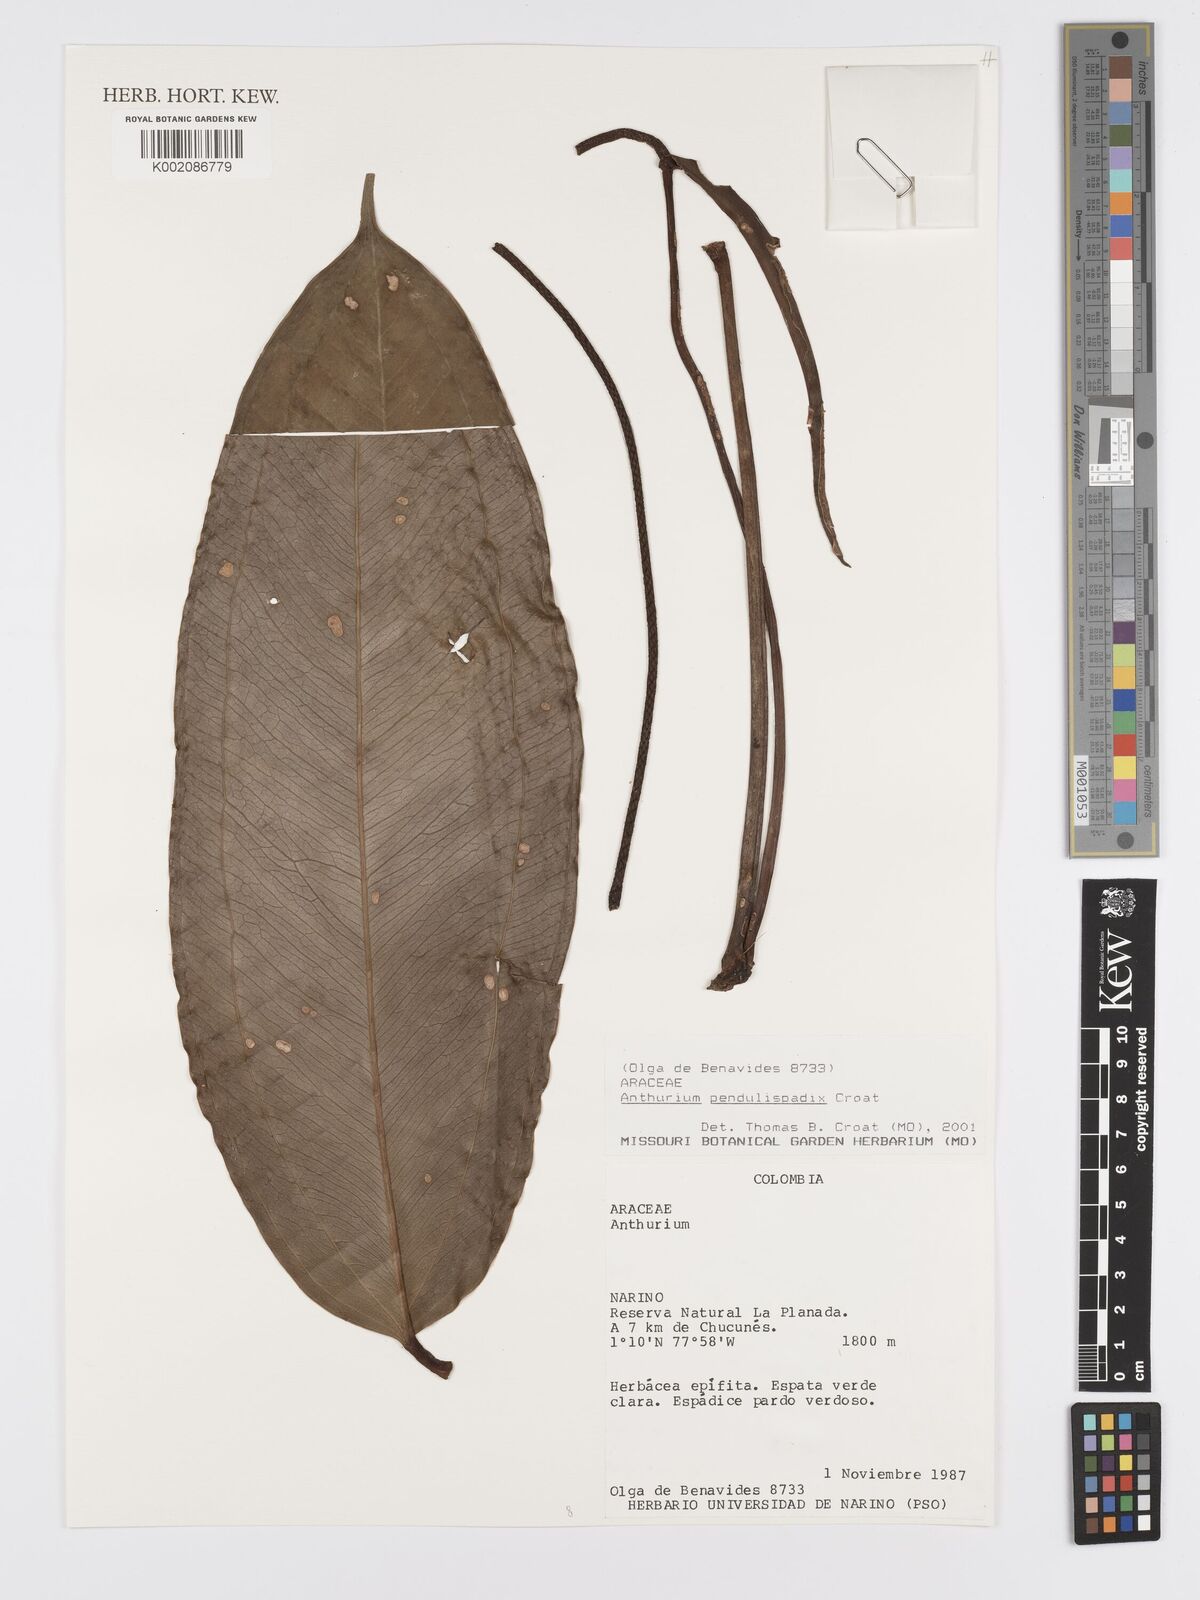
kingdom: Plantae
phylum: Tracheophyta
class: Liliopsida
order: Alismatales
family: Araceae
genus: Anthurium
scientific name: Anthurium pendulispadix
